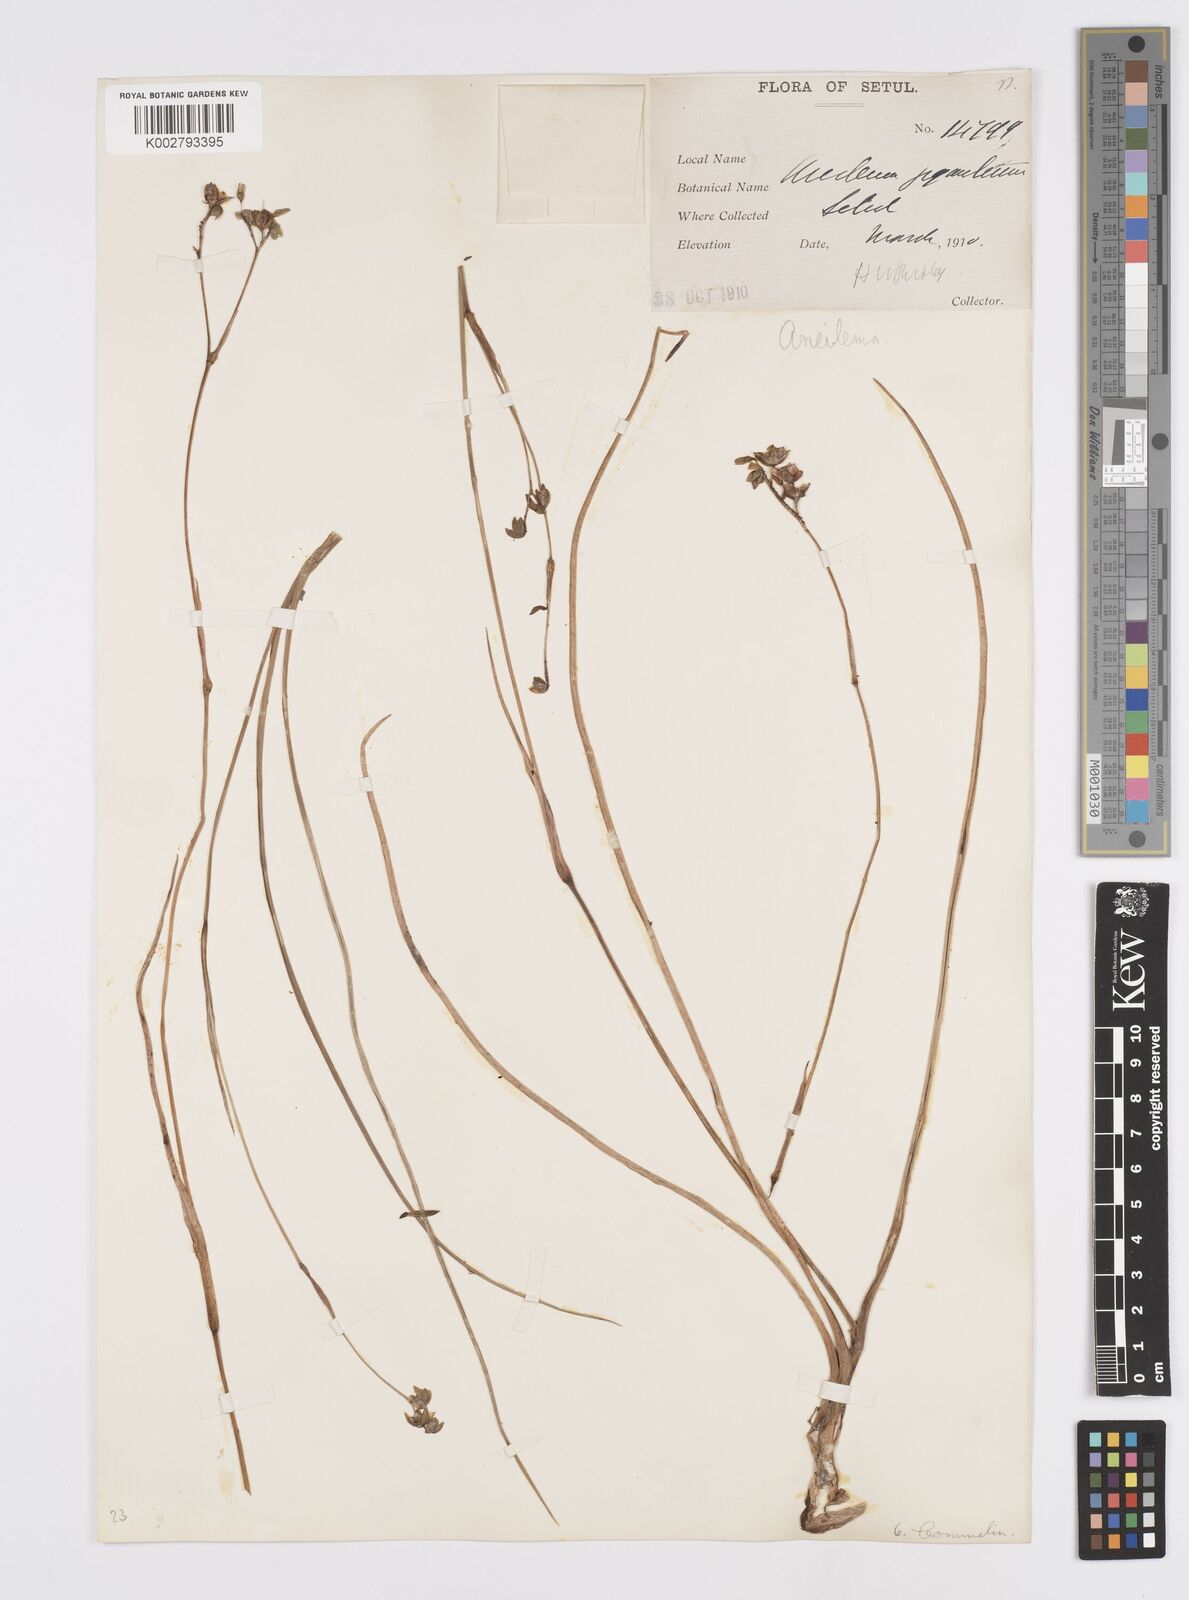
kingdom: Plantae
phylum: Tracheophyta
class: Liliopsida
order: Commelinales
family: Commelinaceae
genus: Murdannia
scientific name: Murdannia gigantea
